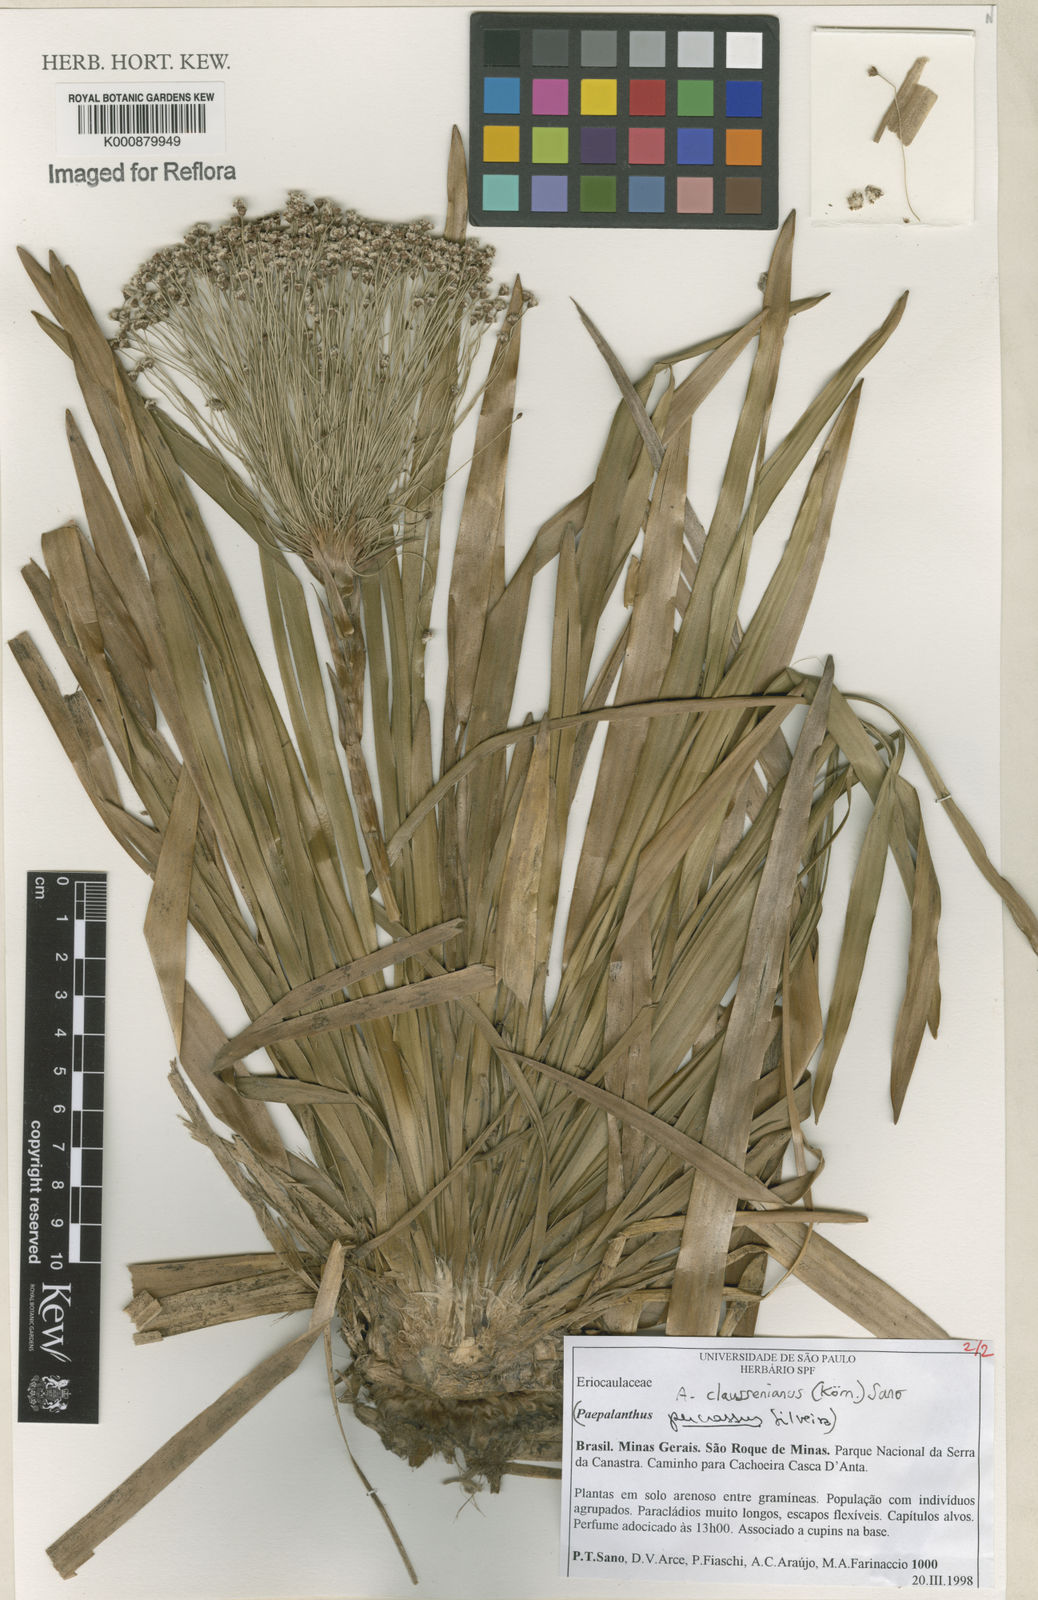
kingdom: Plantae
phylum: Tracheophyta
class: Liliopsida
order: Poales
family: Eriocaulaceae
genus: Paepalanthus
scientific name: Paepalanthus
